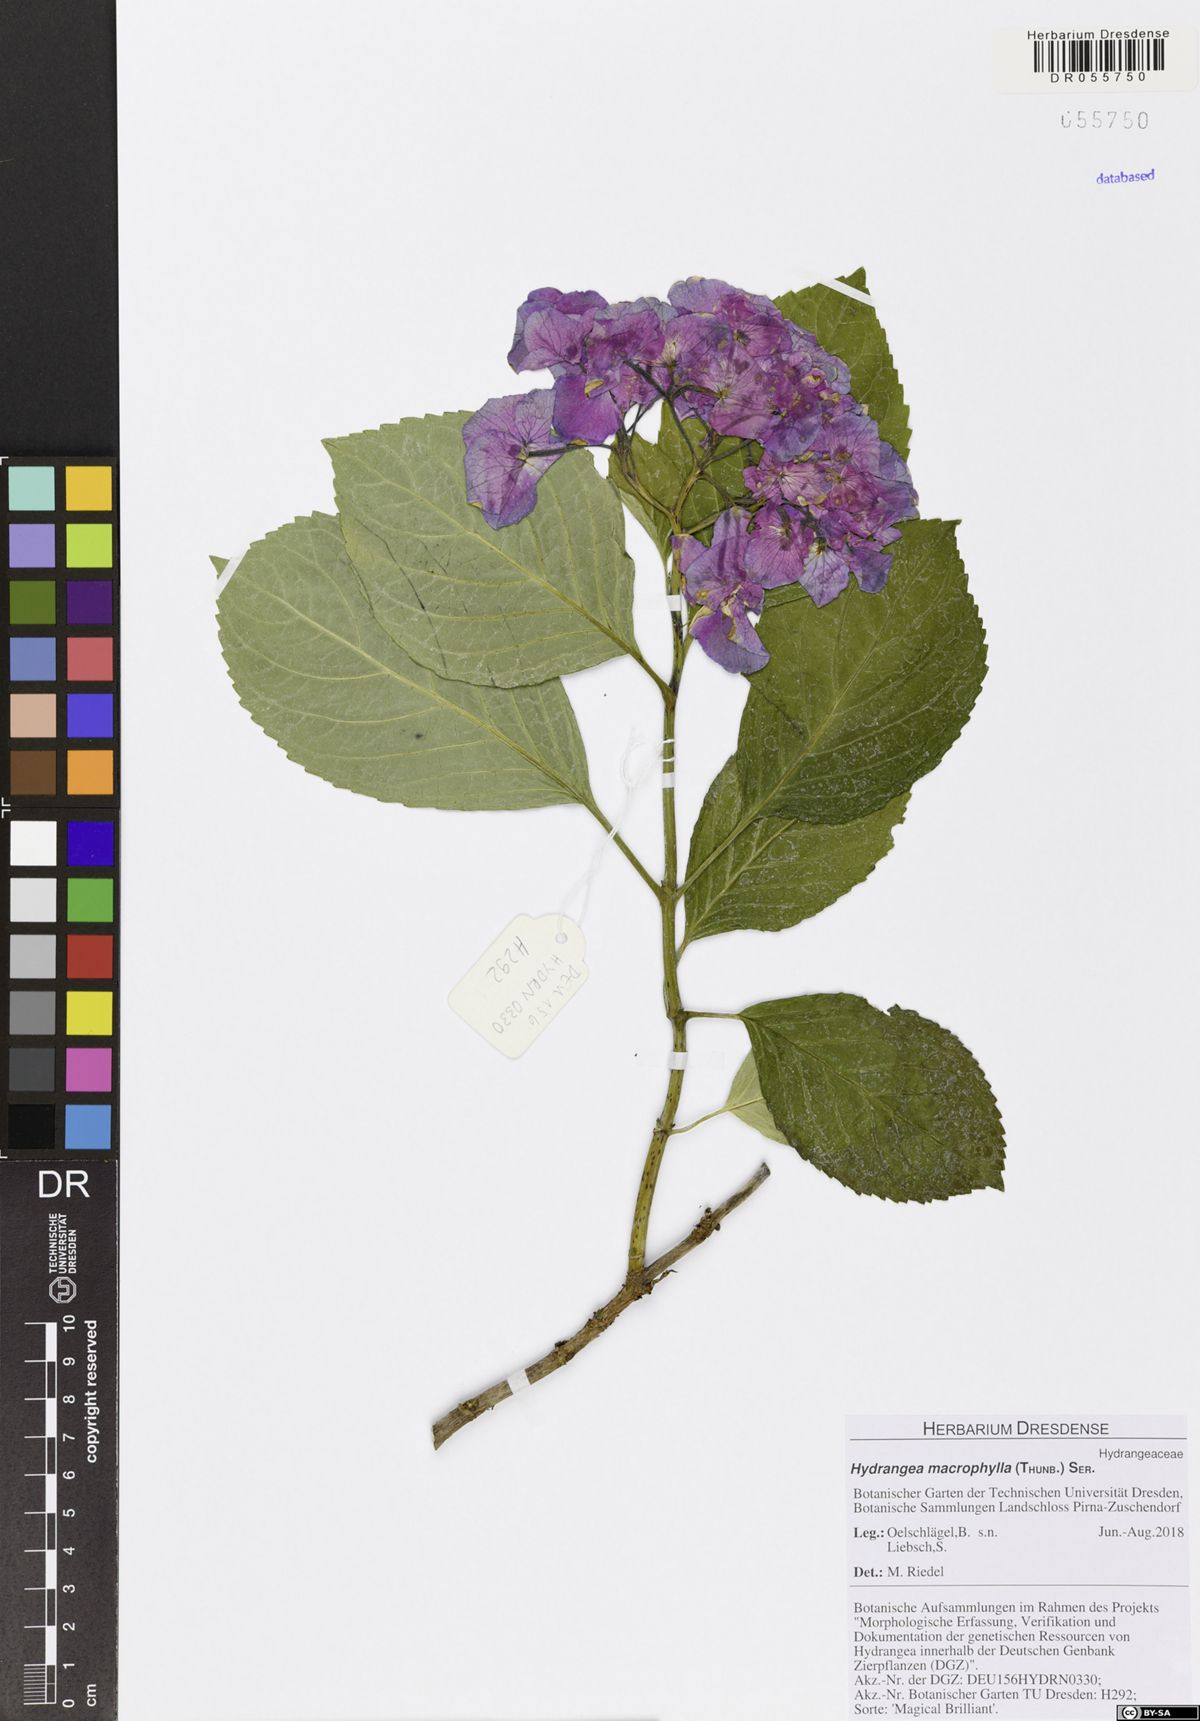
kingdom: Plantae
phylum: Tracheophyta
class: Magnoliopsida
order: Cornales
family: Hydrangeaceae
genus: Hydrangea
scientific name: Hydrangea macrophylla
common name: Hydrangea
